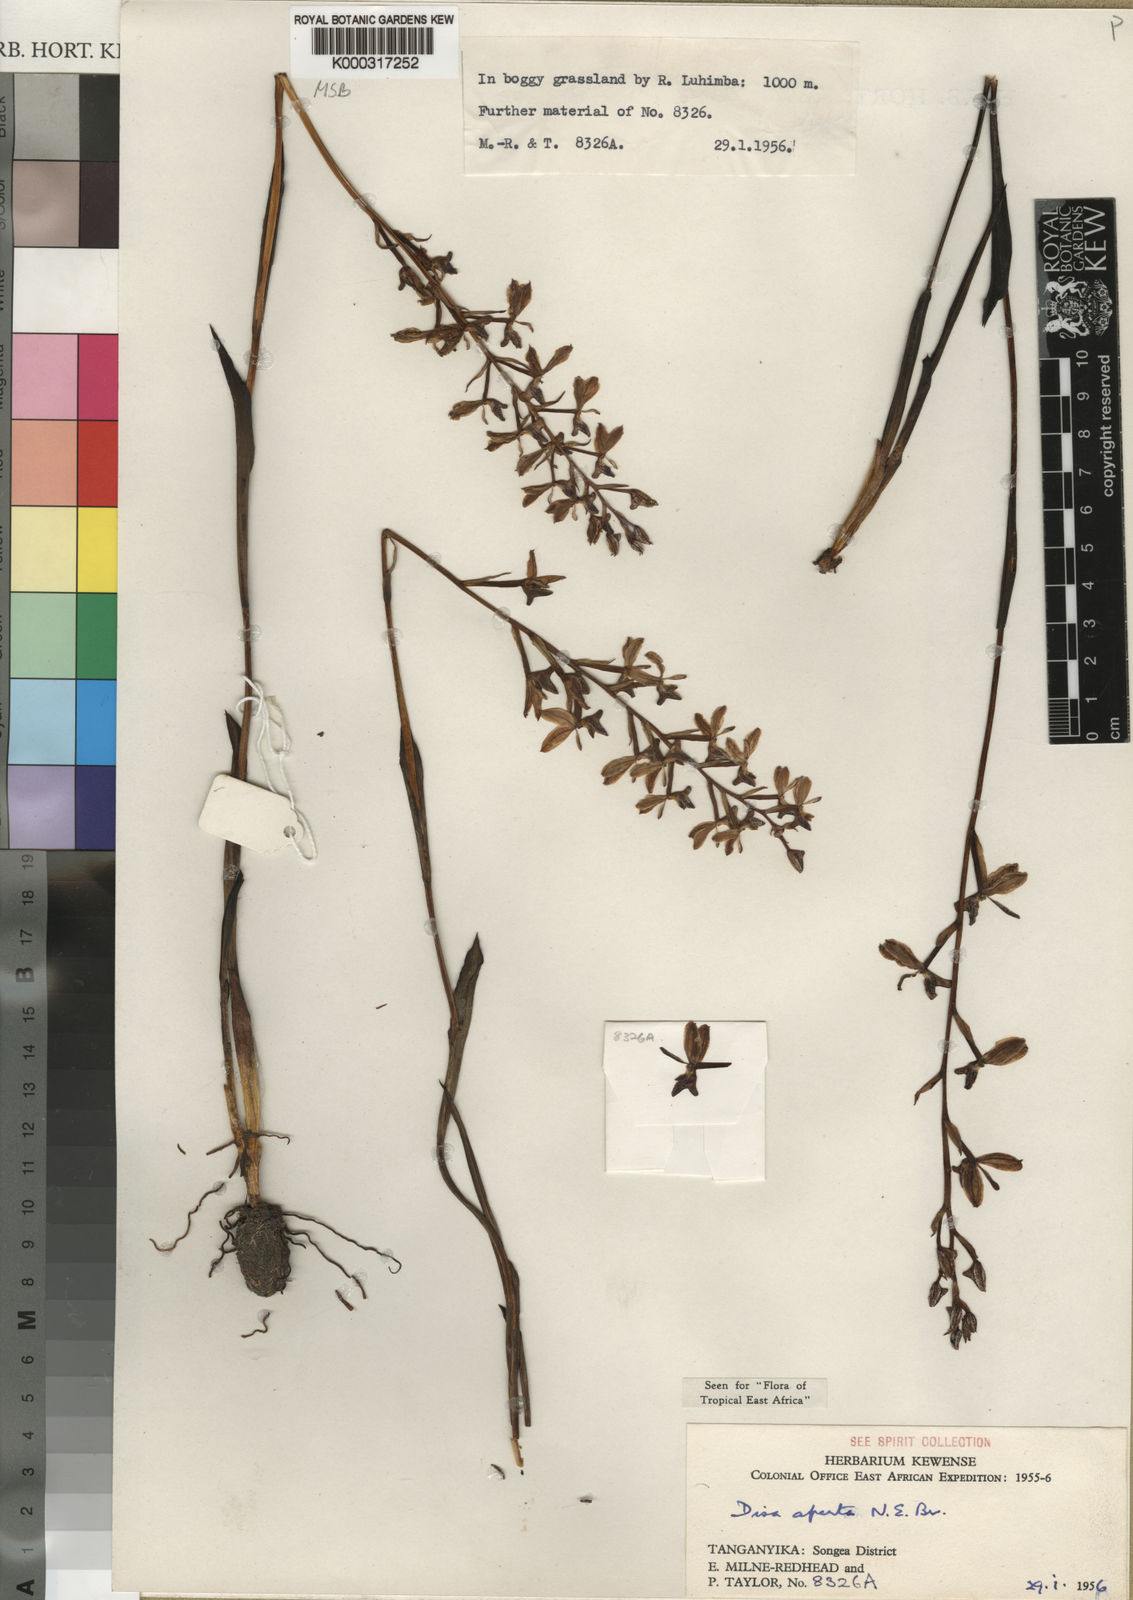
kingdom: Plantae
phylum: Tracheophyta
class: Liliopsida
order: Asparagales
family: Orchidaceae
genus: Disa
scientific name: Disa aperta
